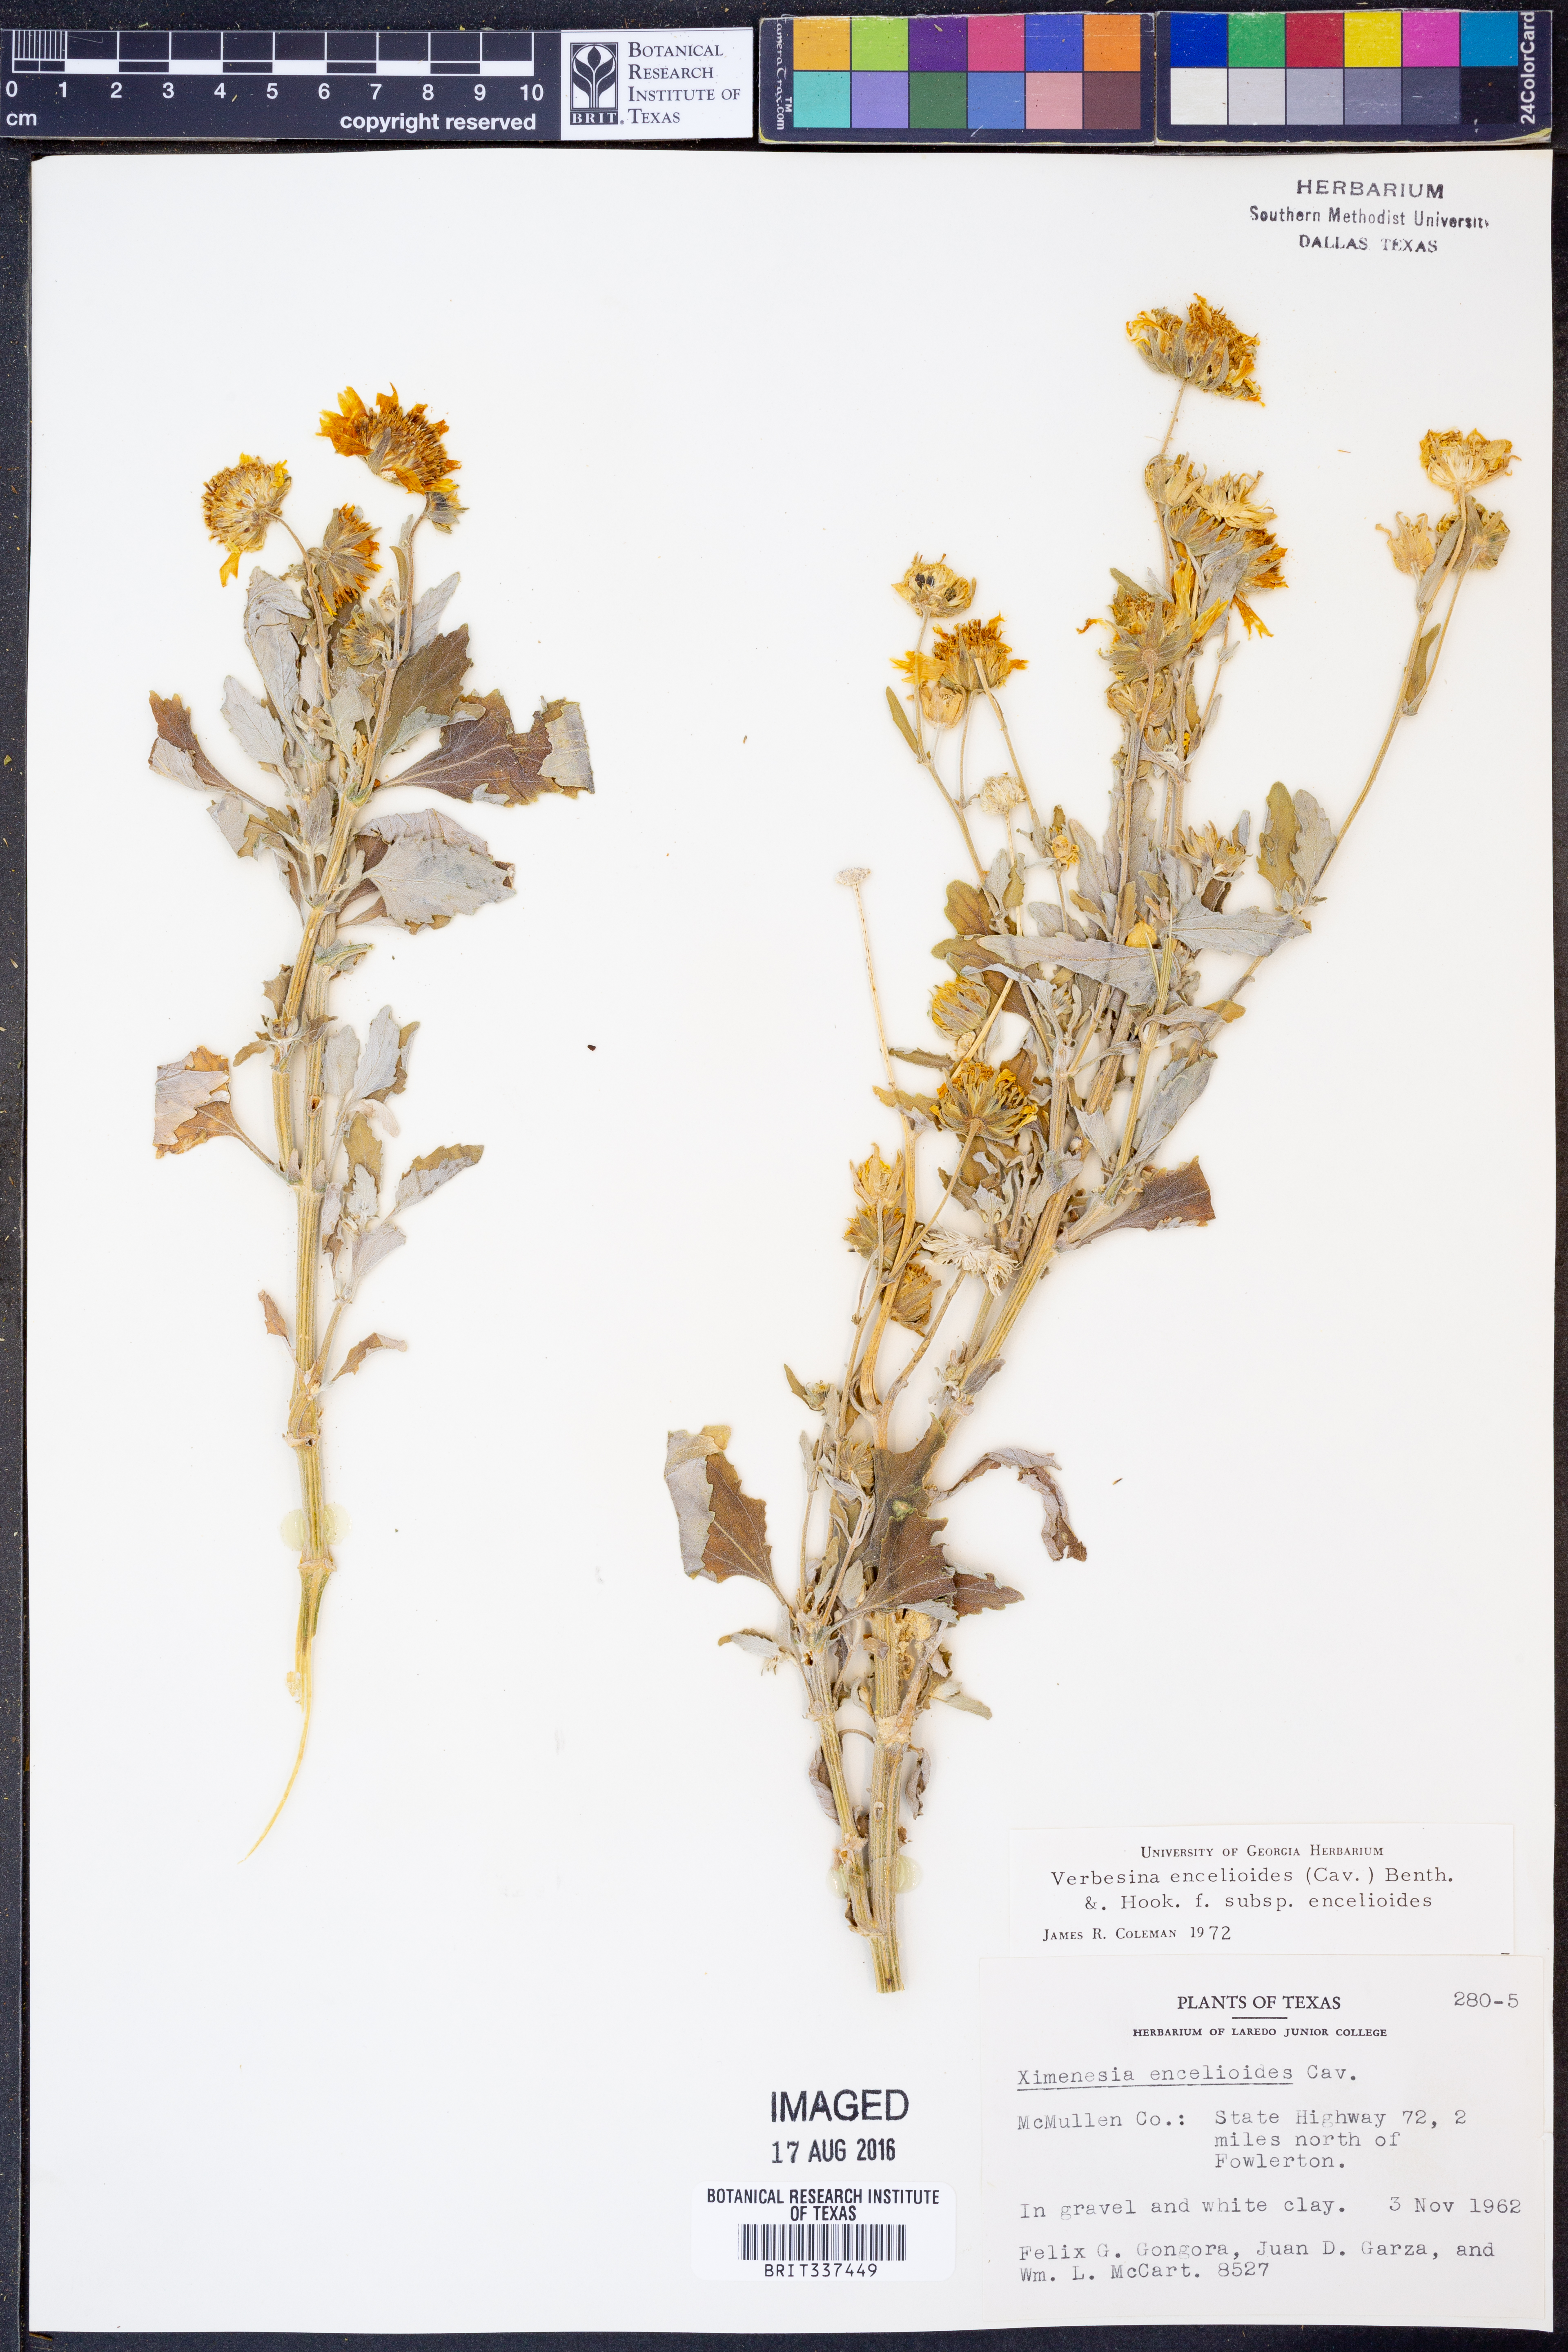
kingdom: Plantae
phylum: Tracheophyta
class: Magnoliopsida
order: Asterales
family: Asteraceae
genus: Verbesina
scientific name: Verbesina encelioides
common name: Golden crownbeard
